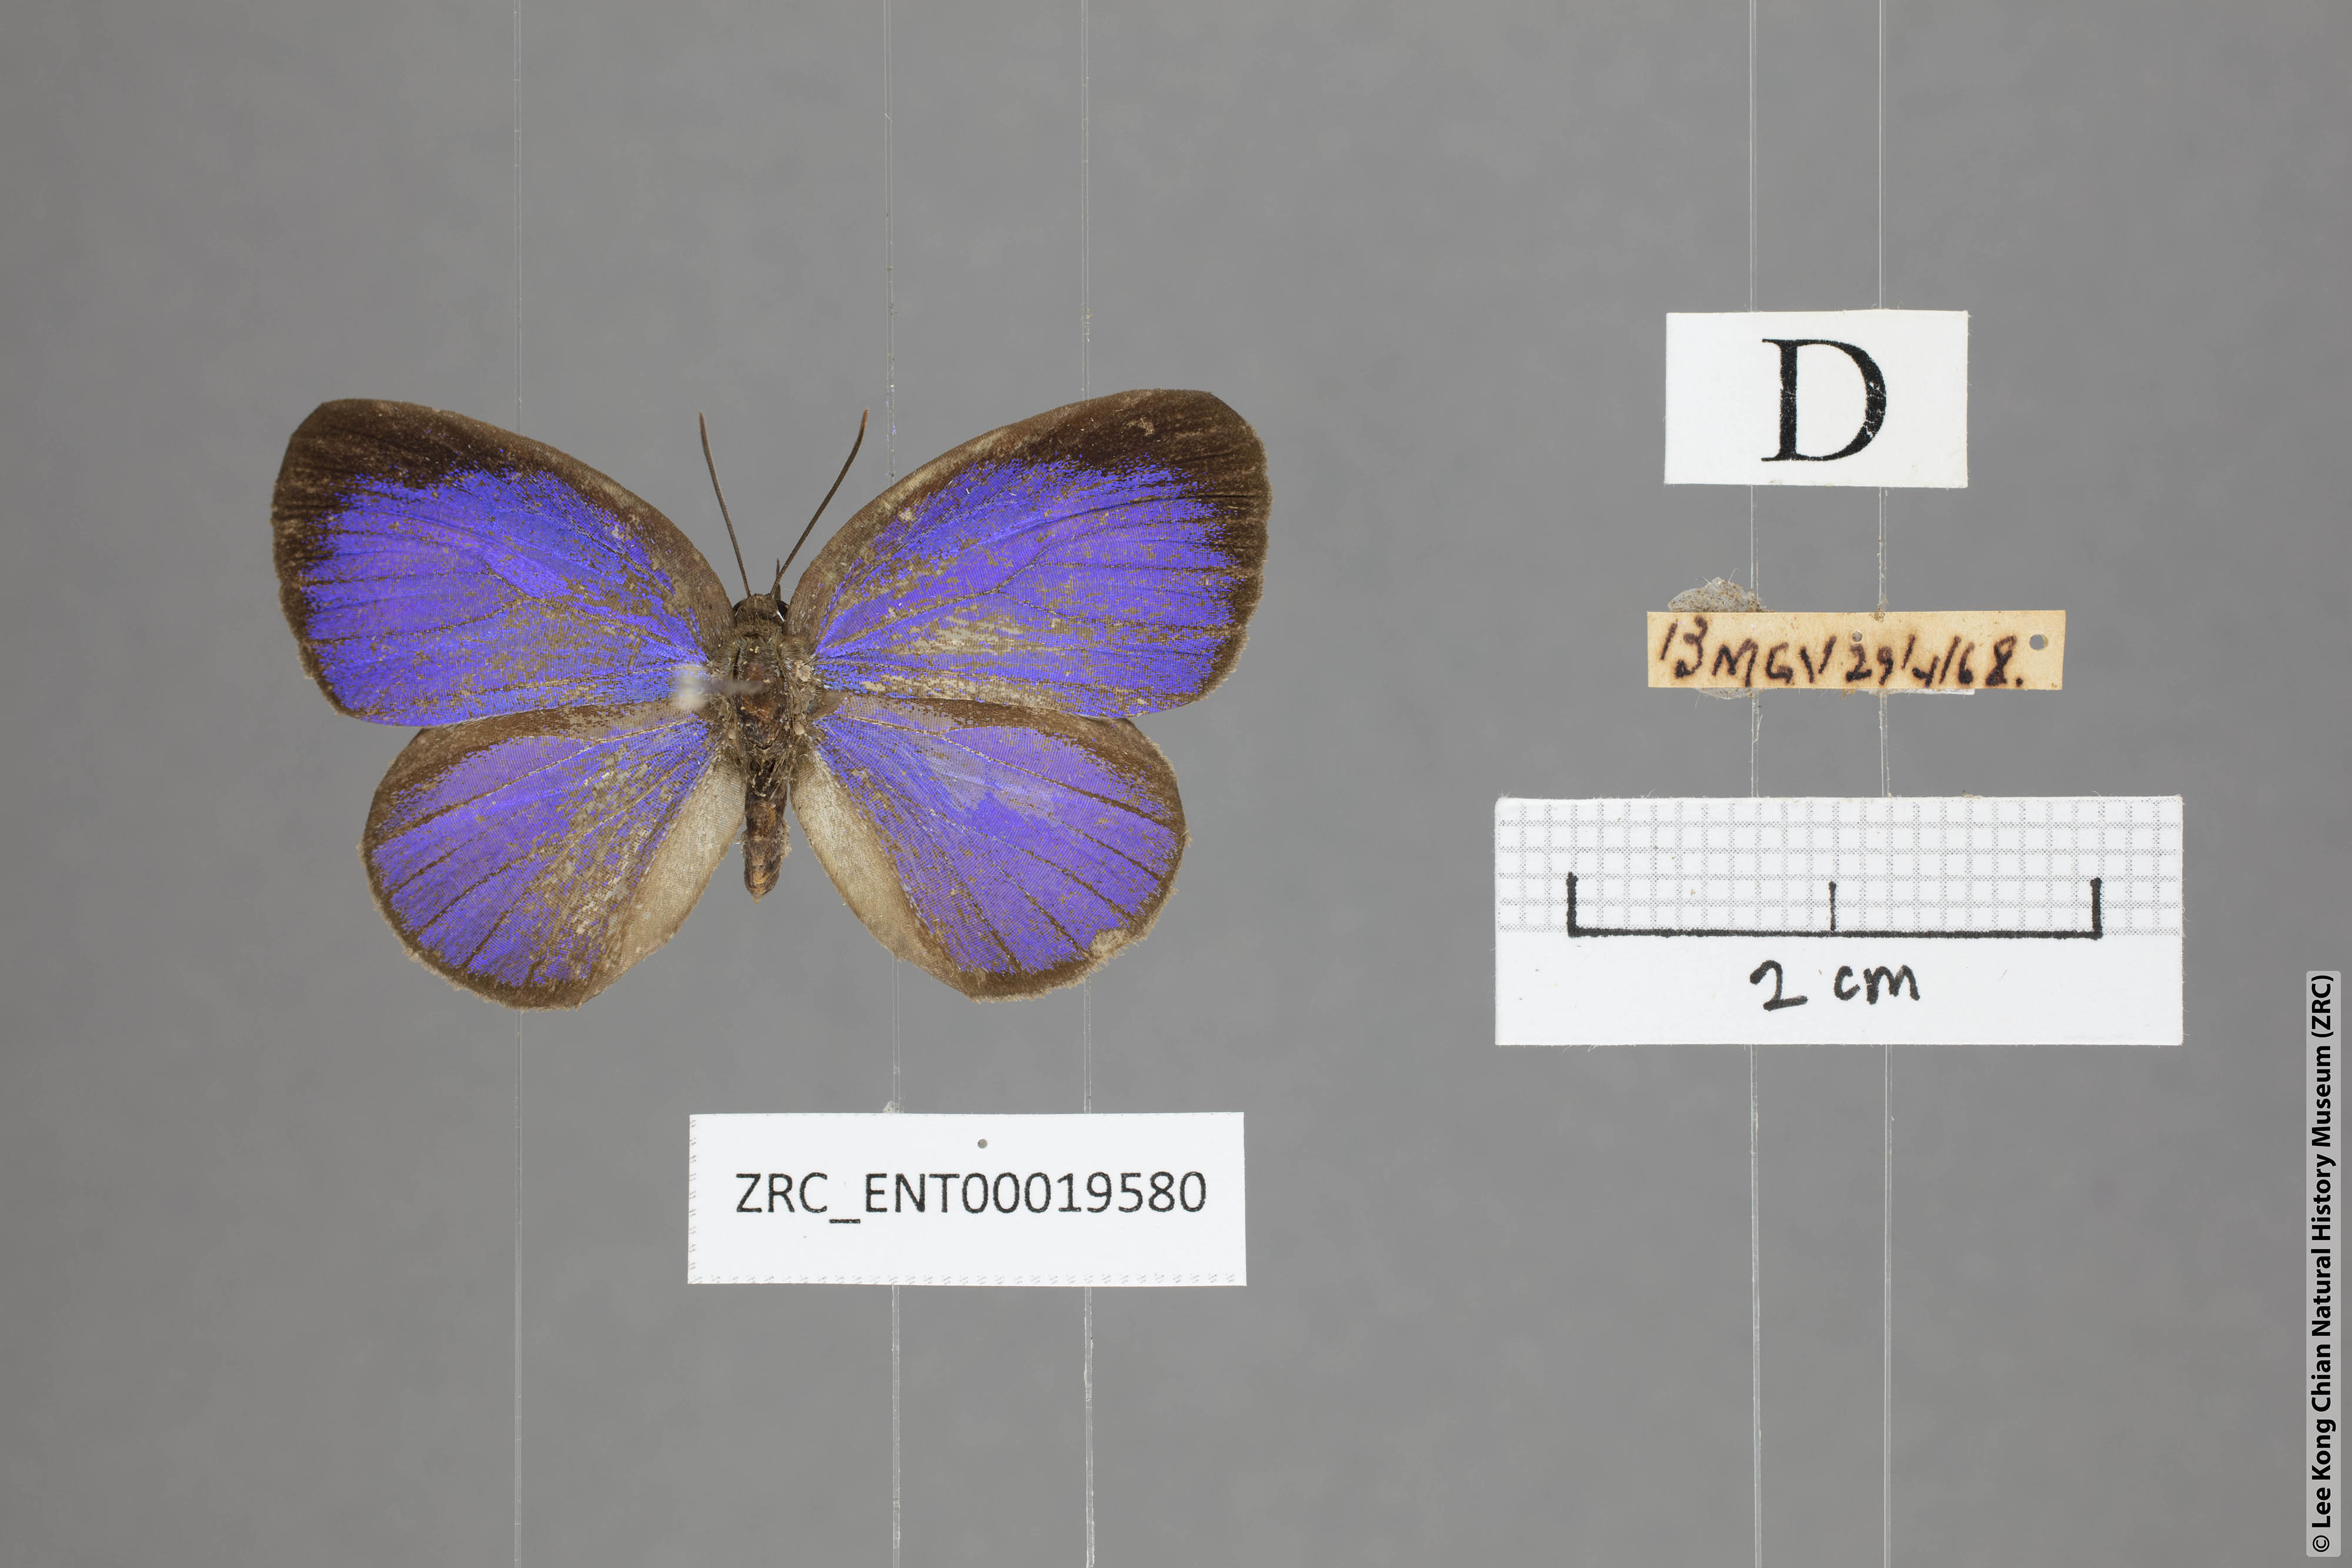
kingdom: Animalia
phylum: Arthropoda
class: Insecta
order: Lepidoptera
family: Lycaenidae
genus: Arhopala
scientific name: Arhopala inornata
